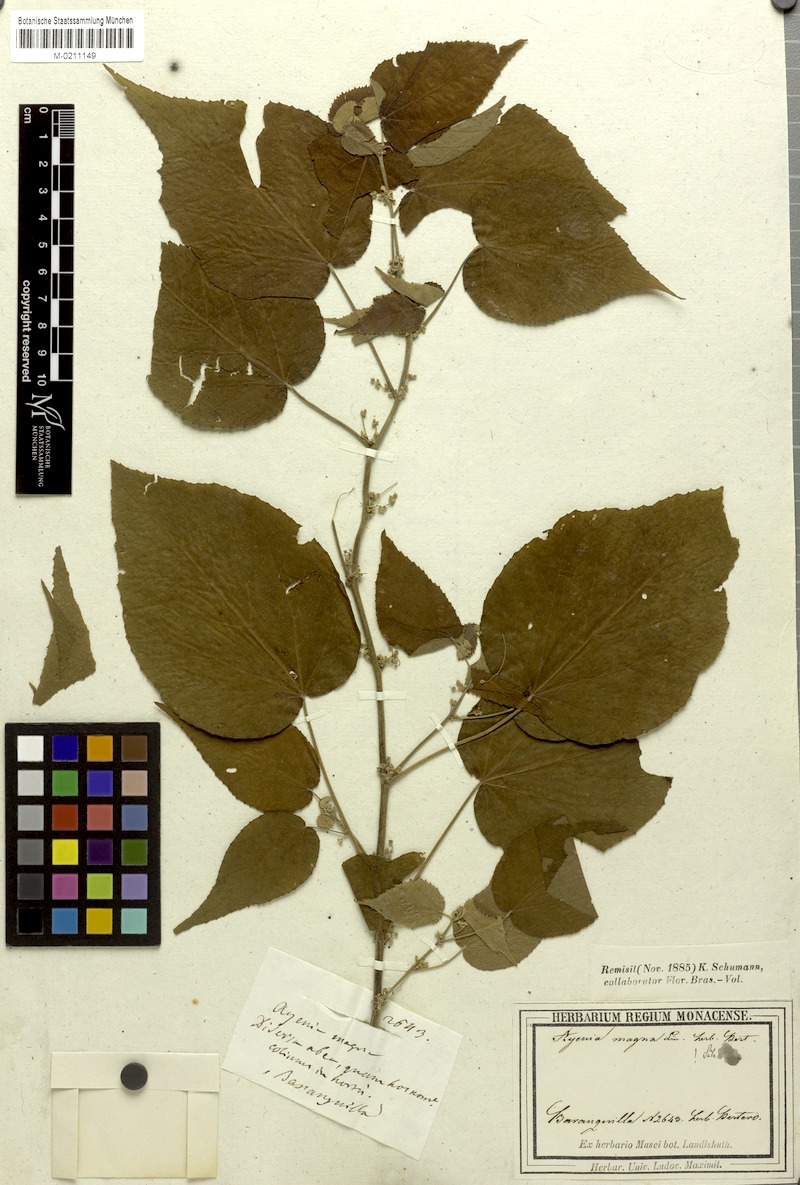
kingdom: Plantae
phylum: Tracheophyta
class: Magnoliopsida
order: Malvales
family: Malvaceae
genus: Ayenia
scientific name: Ayenia magna
